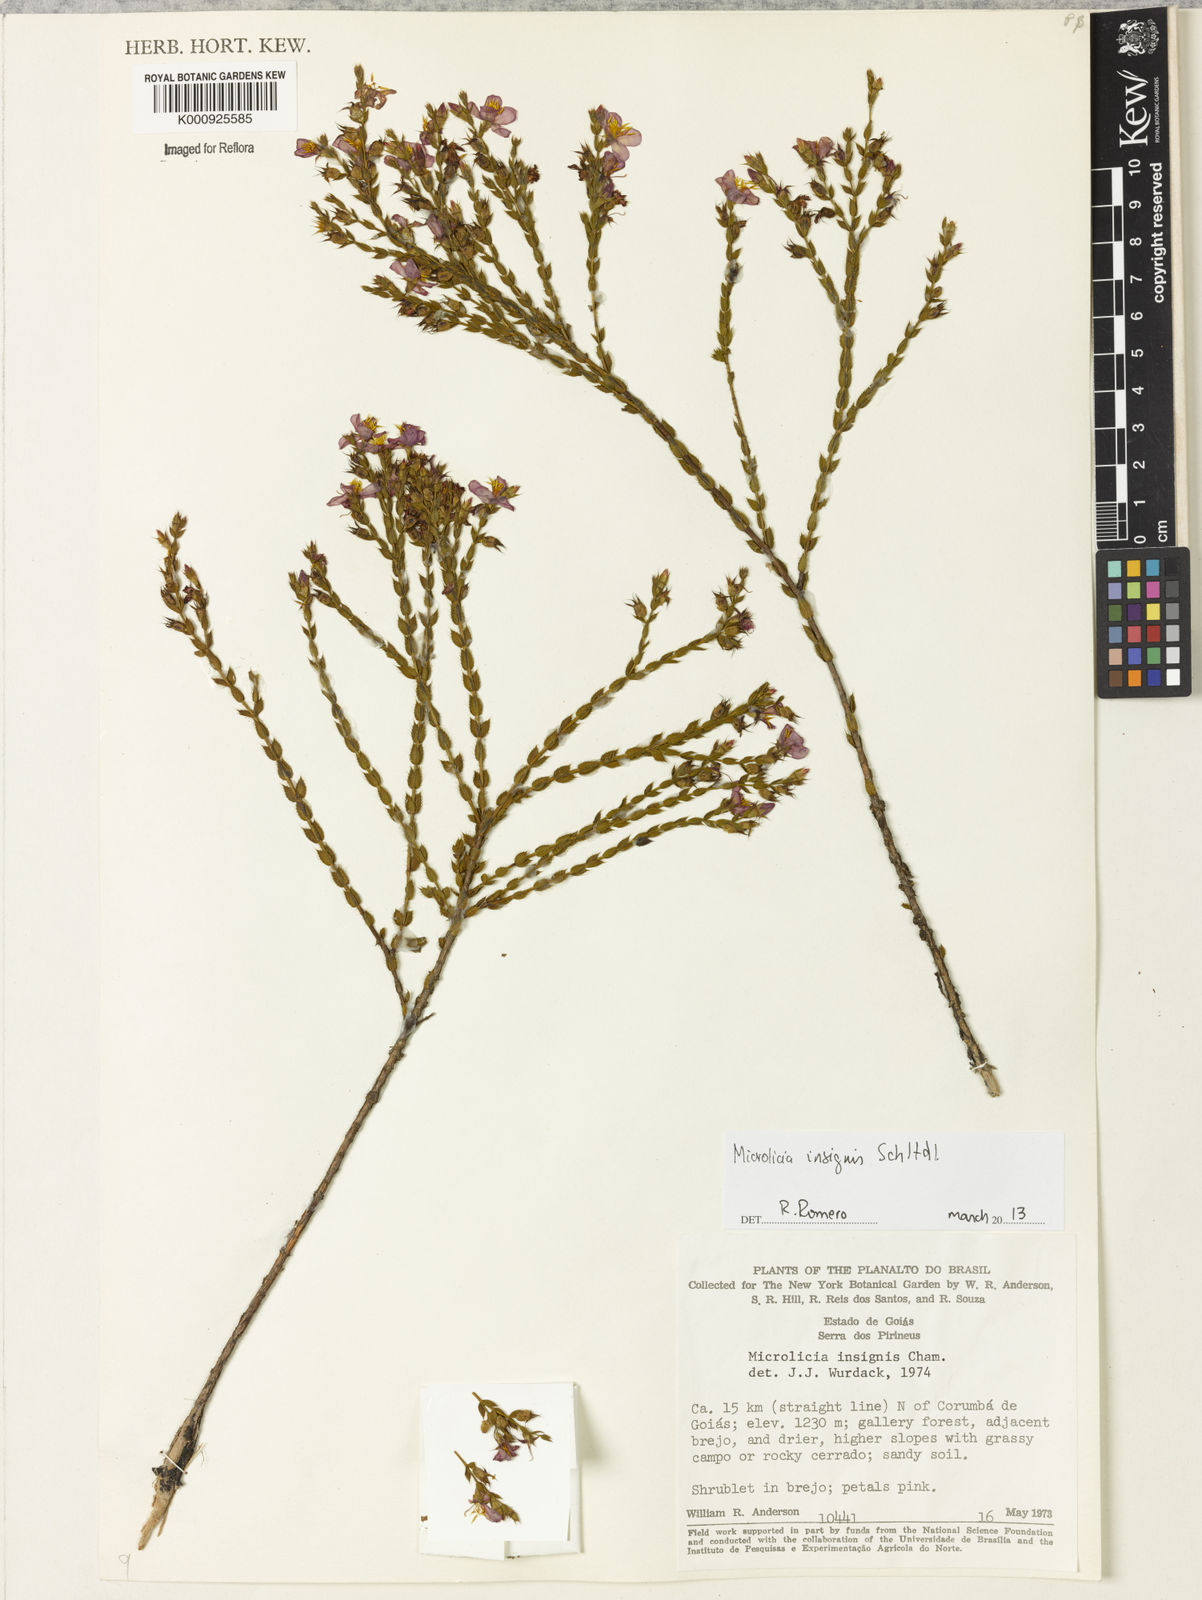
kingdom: Plantae
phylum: Tracheophyta
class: Magnoliopsida
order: Myrtales
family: Melastomataceae
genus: Microlicia
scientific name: Microlicia
